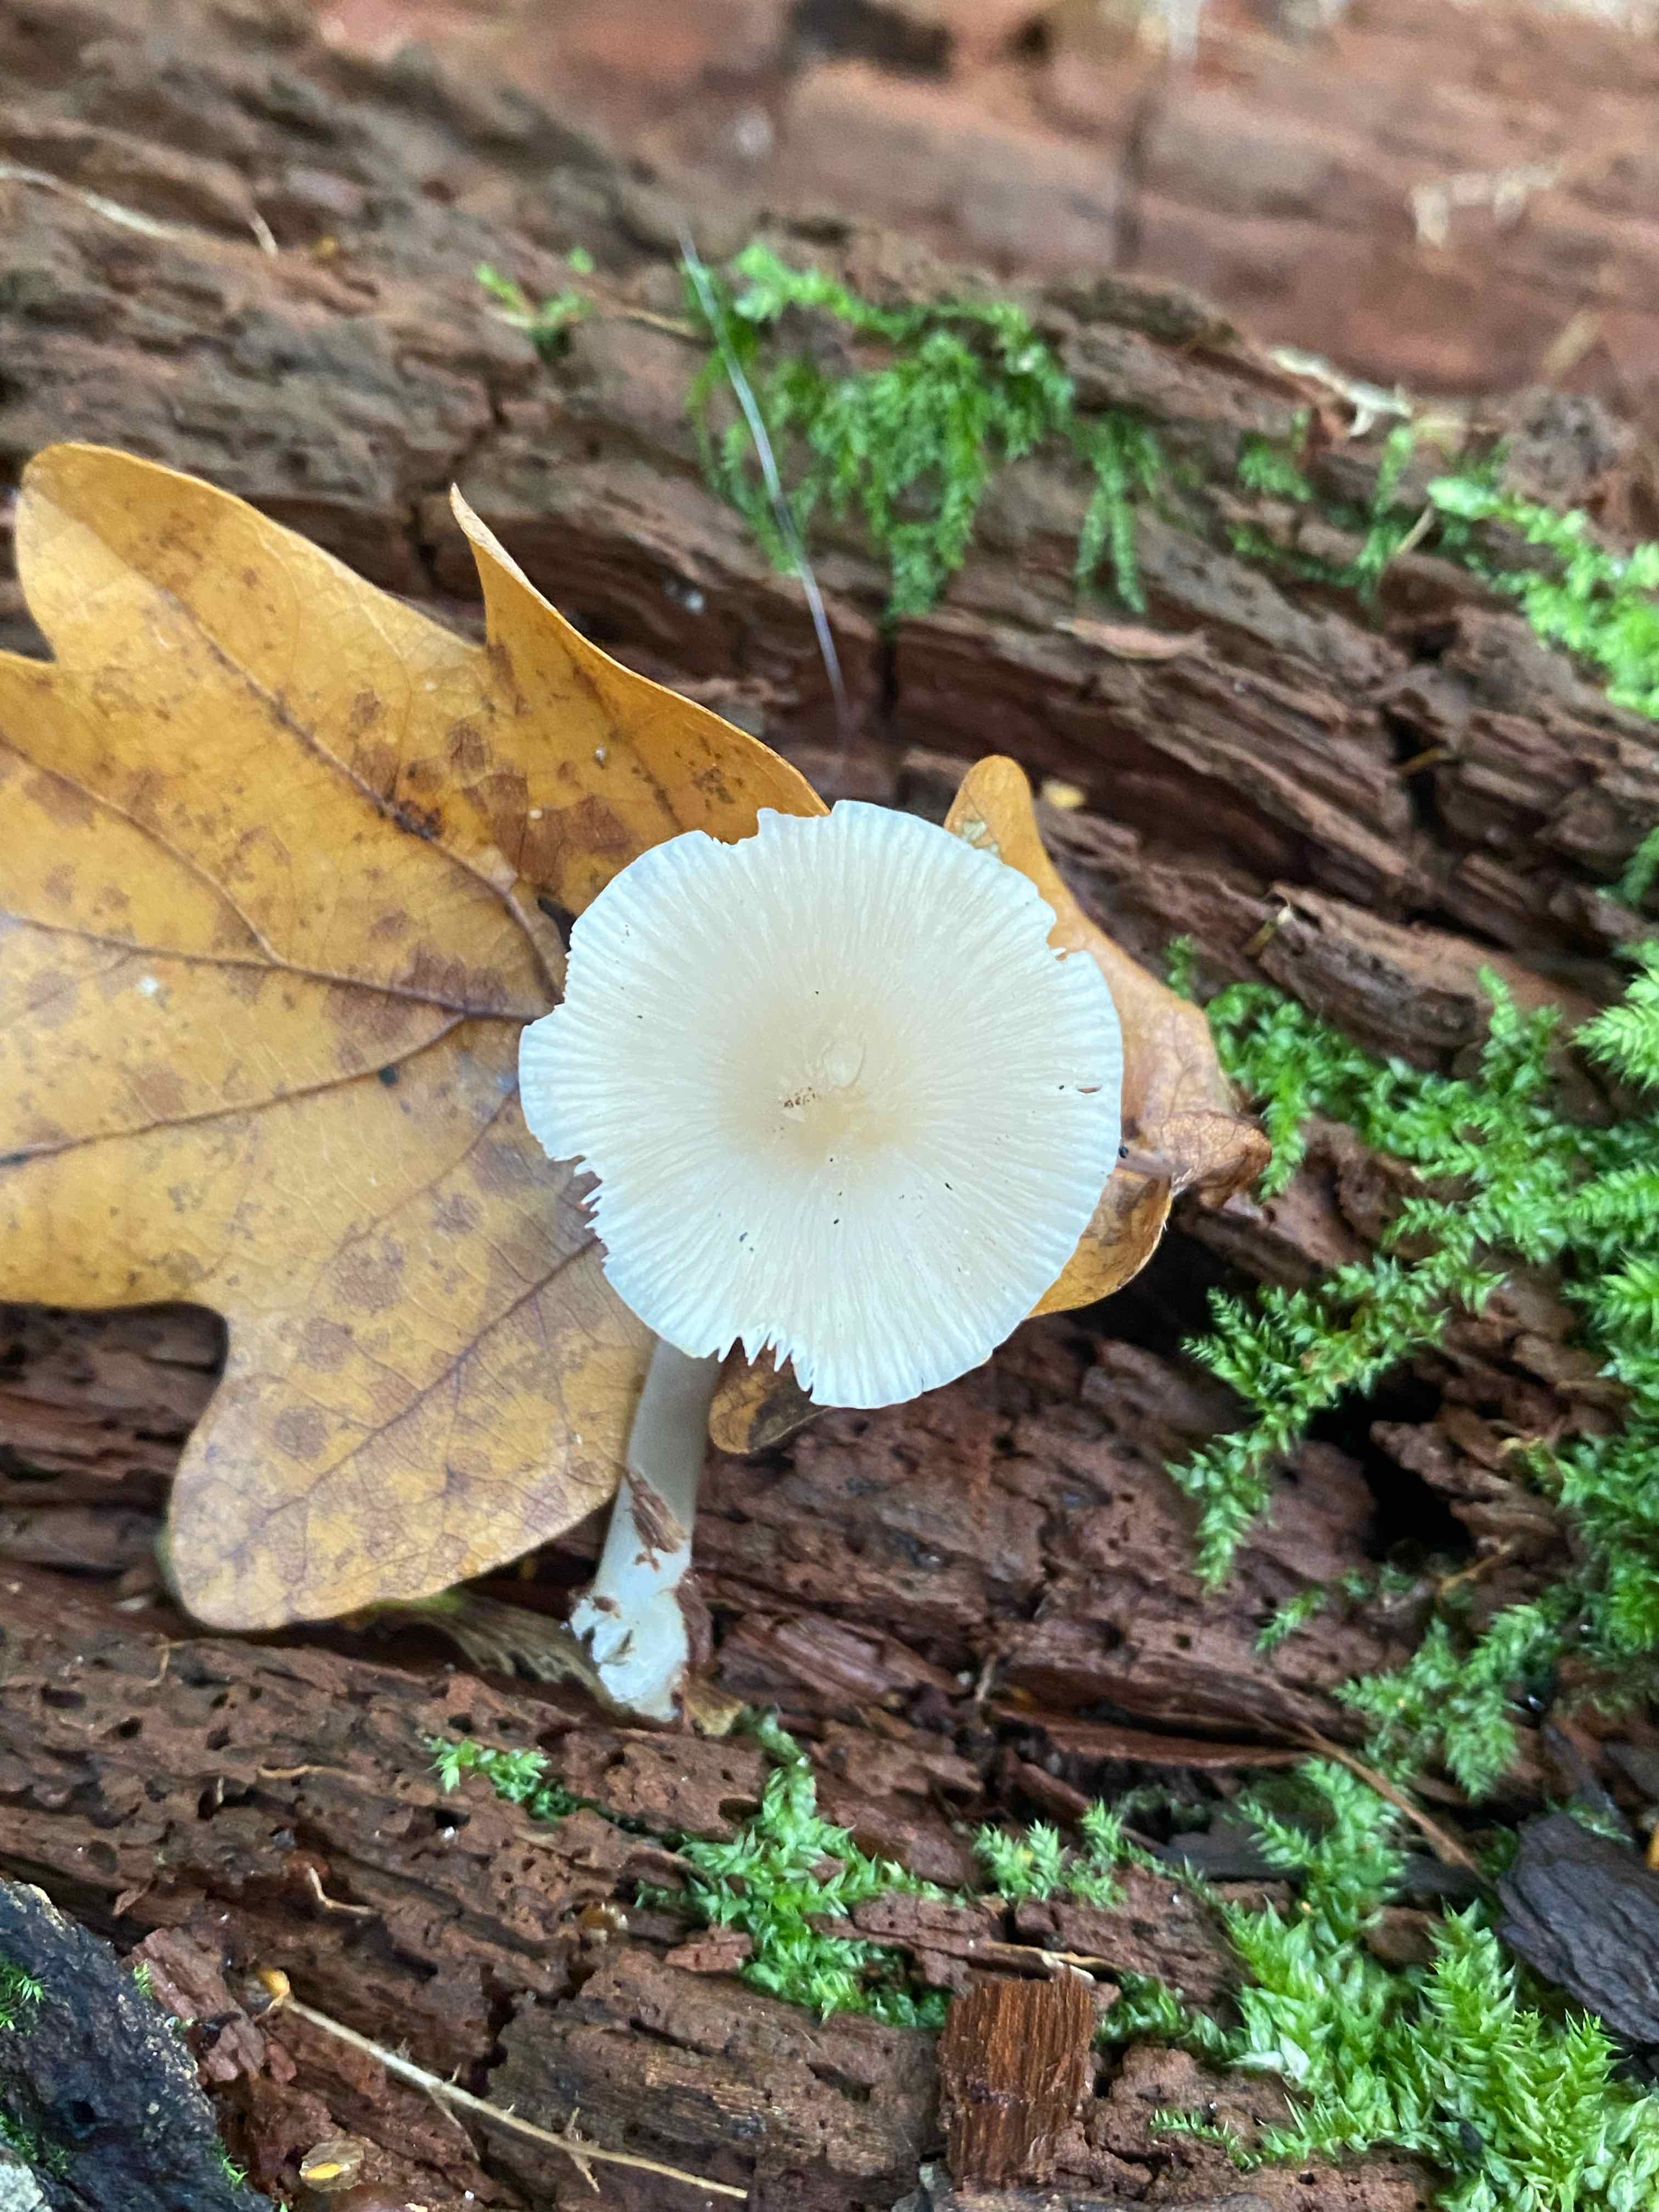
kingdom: Fungi
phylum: Basidiomycota
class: Agaricomycetes
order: Agaricales
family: Mycenaceae
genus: Mycena
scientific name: Mycena galericulata
